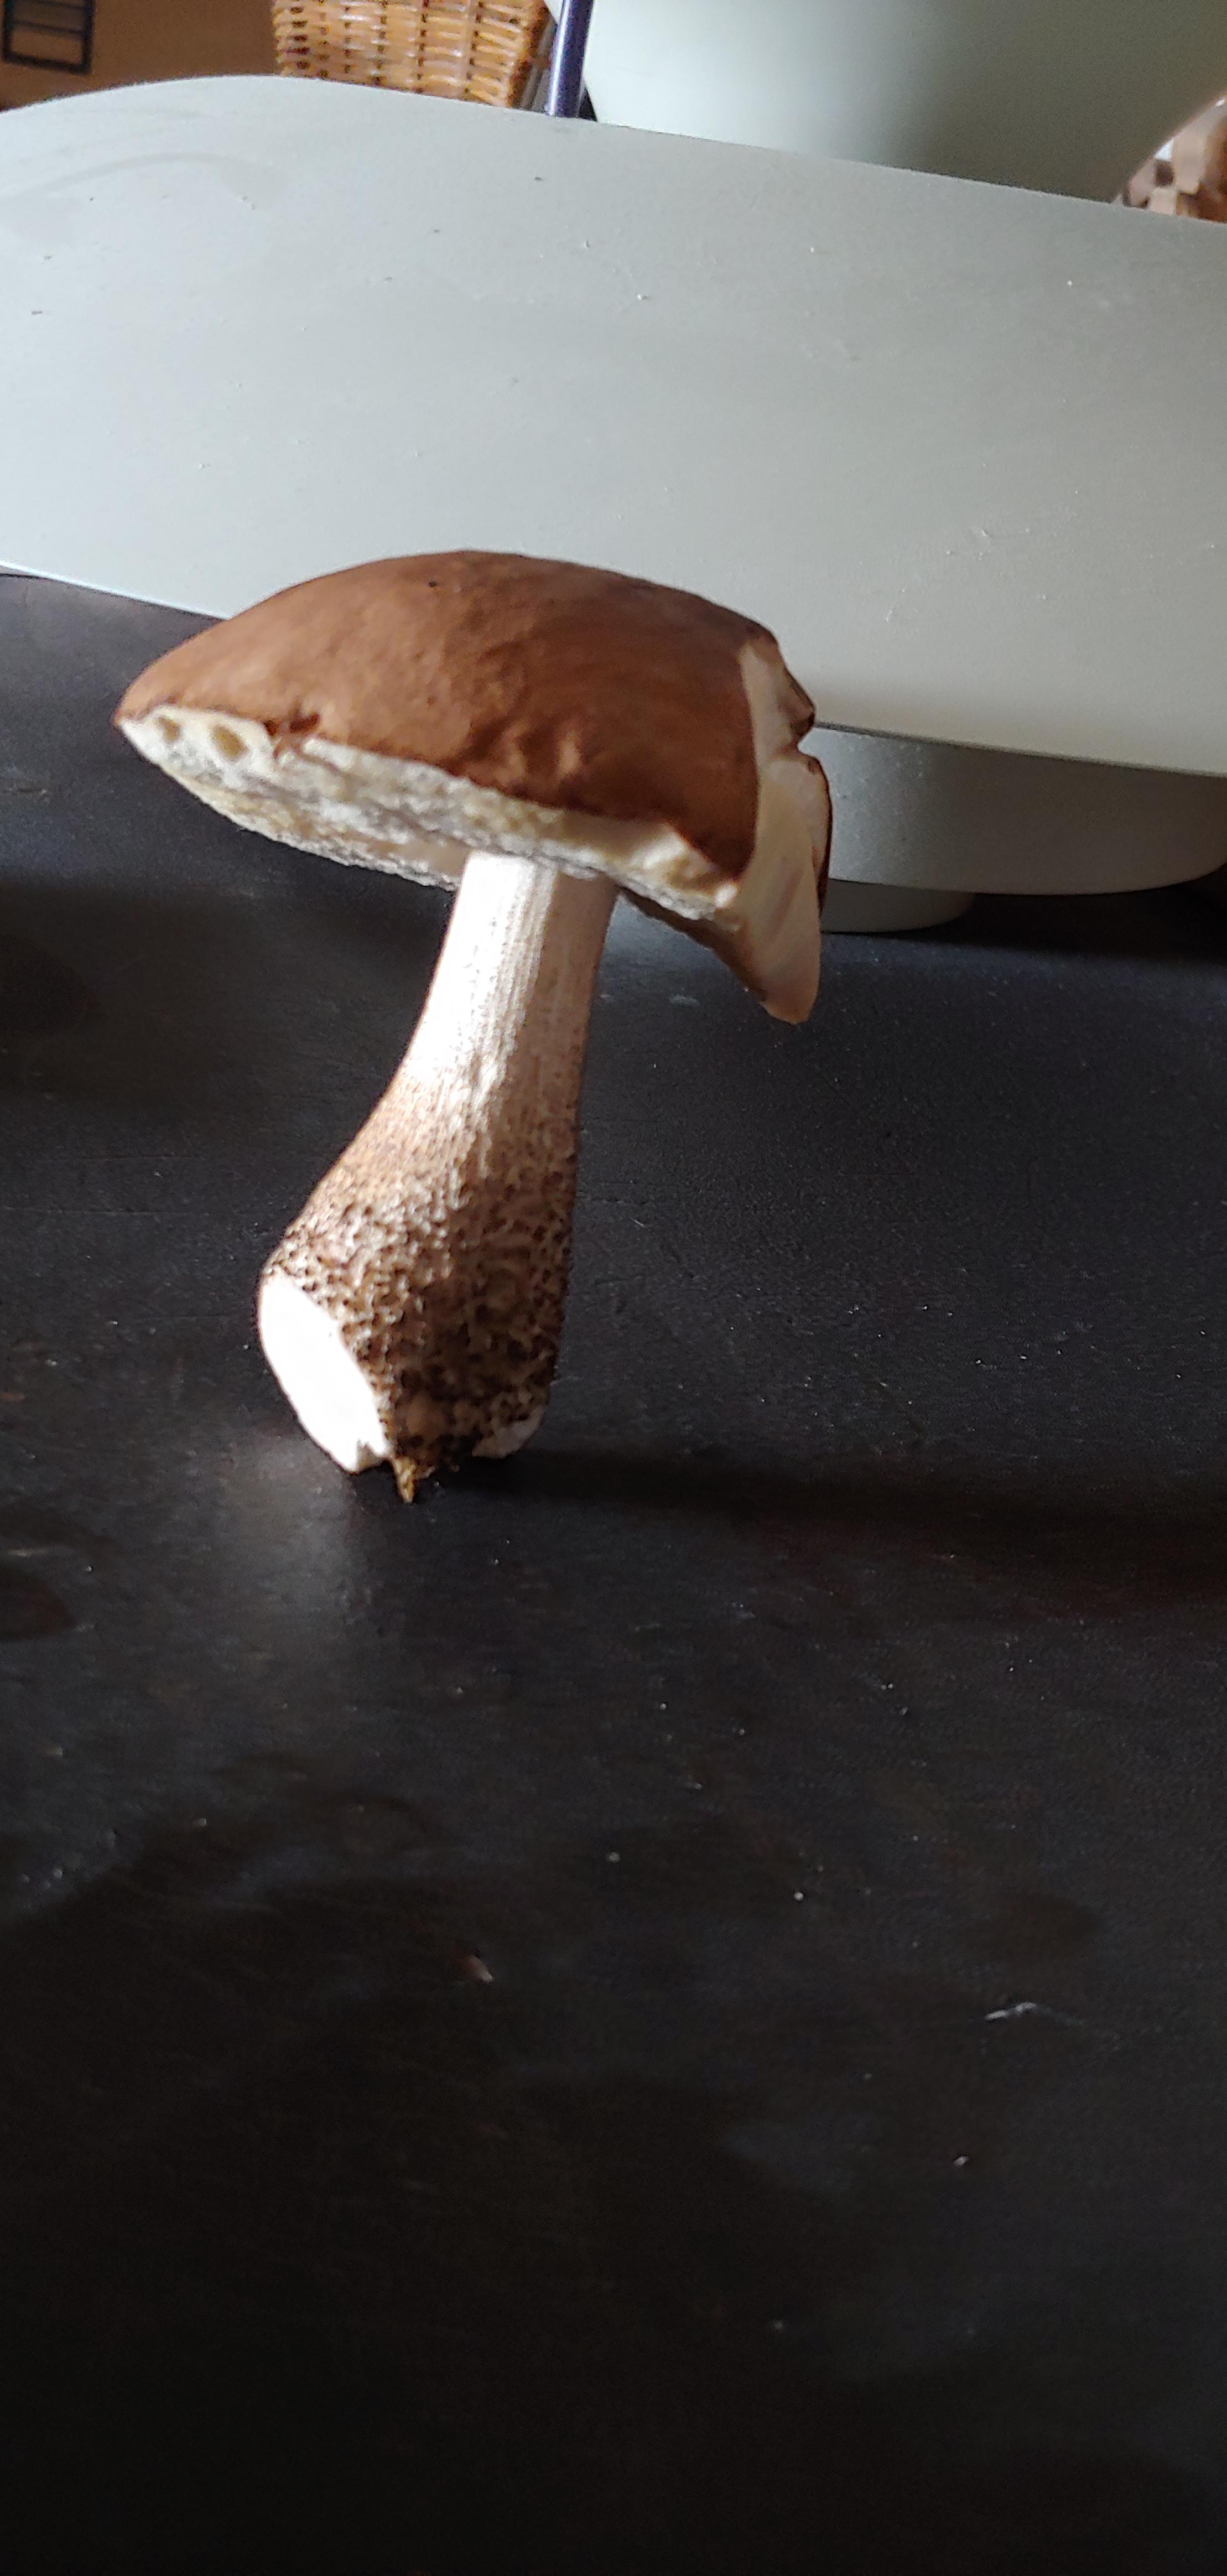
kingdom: Fungi
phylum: Basidiomycota
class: Agaricomycetes
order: Boletales
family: Boletaceae
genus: Leccinum
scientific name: Leccinum
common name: skælrørhat
